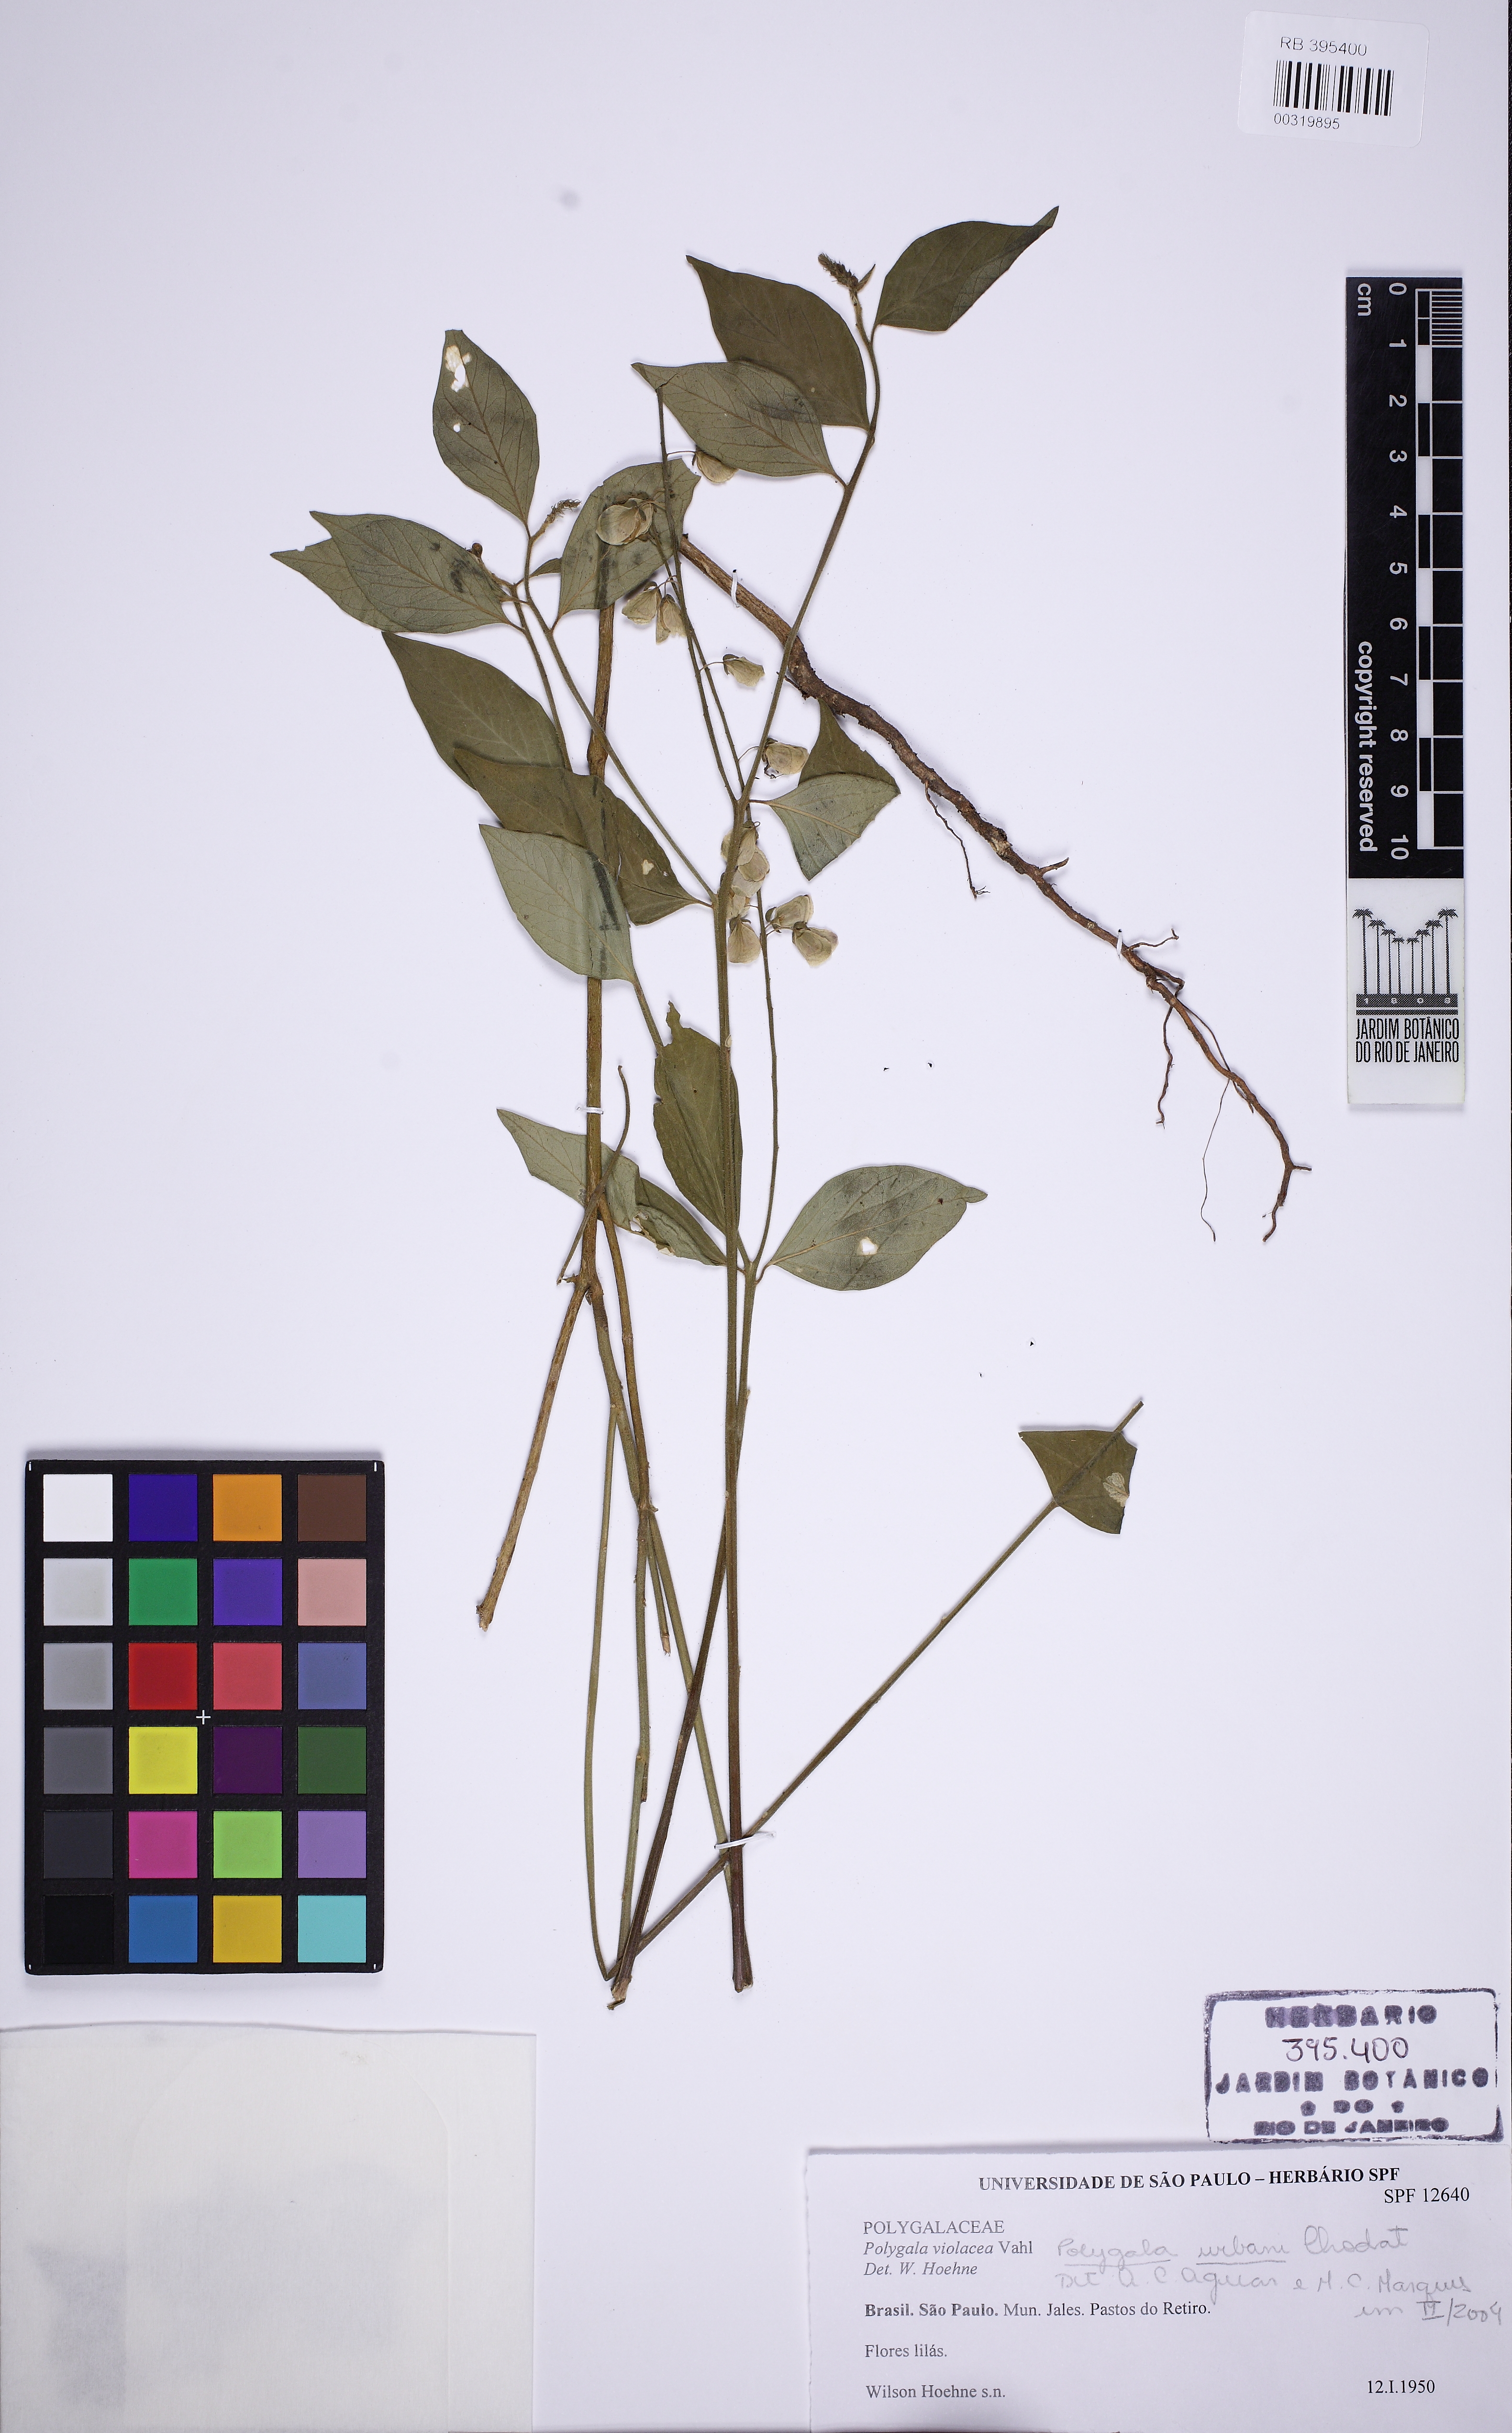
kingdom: Plantae
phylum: Tracheophyta
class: Magnoliopsida
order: Fabales
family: Polygalaceae
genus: Asemeia
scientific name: Asemeia monninoides
